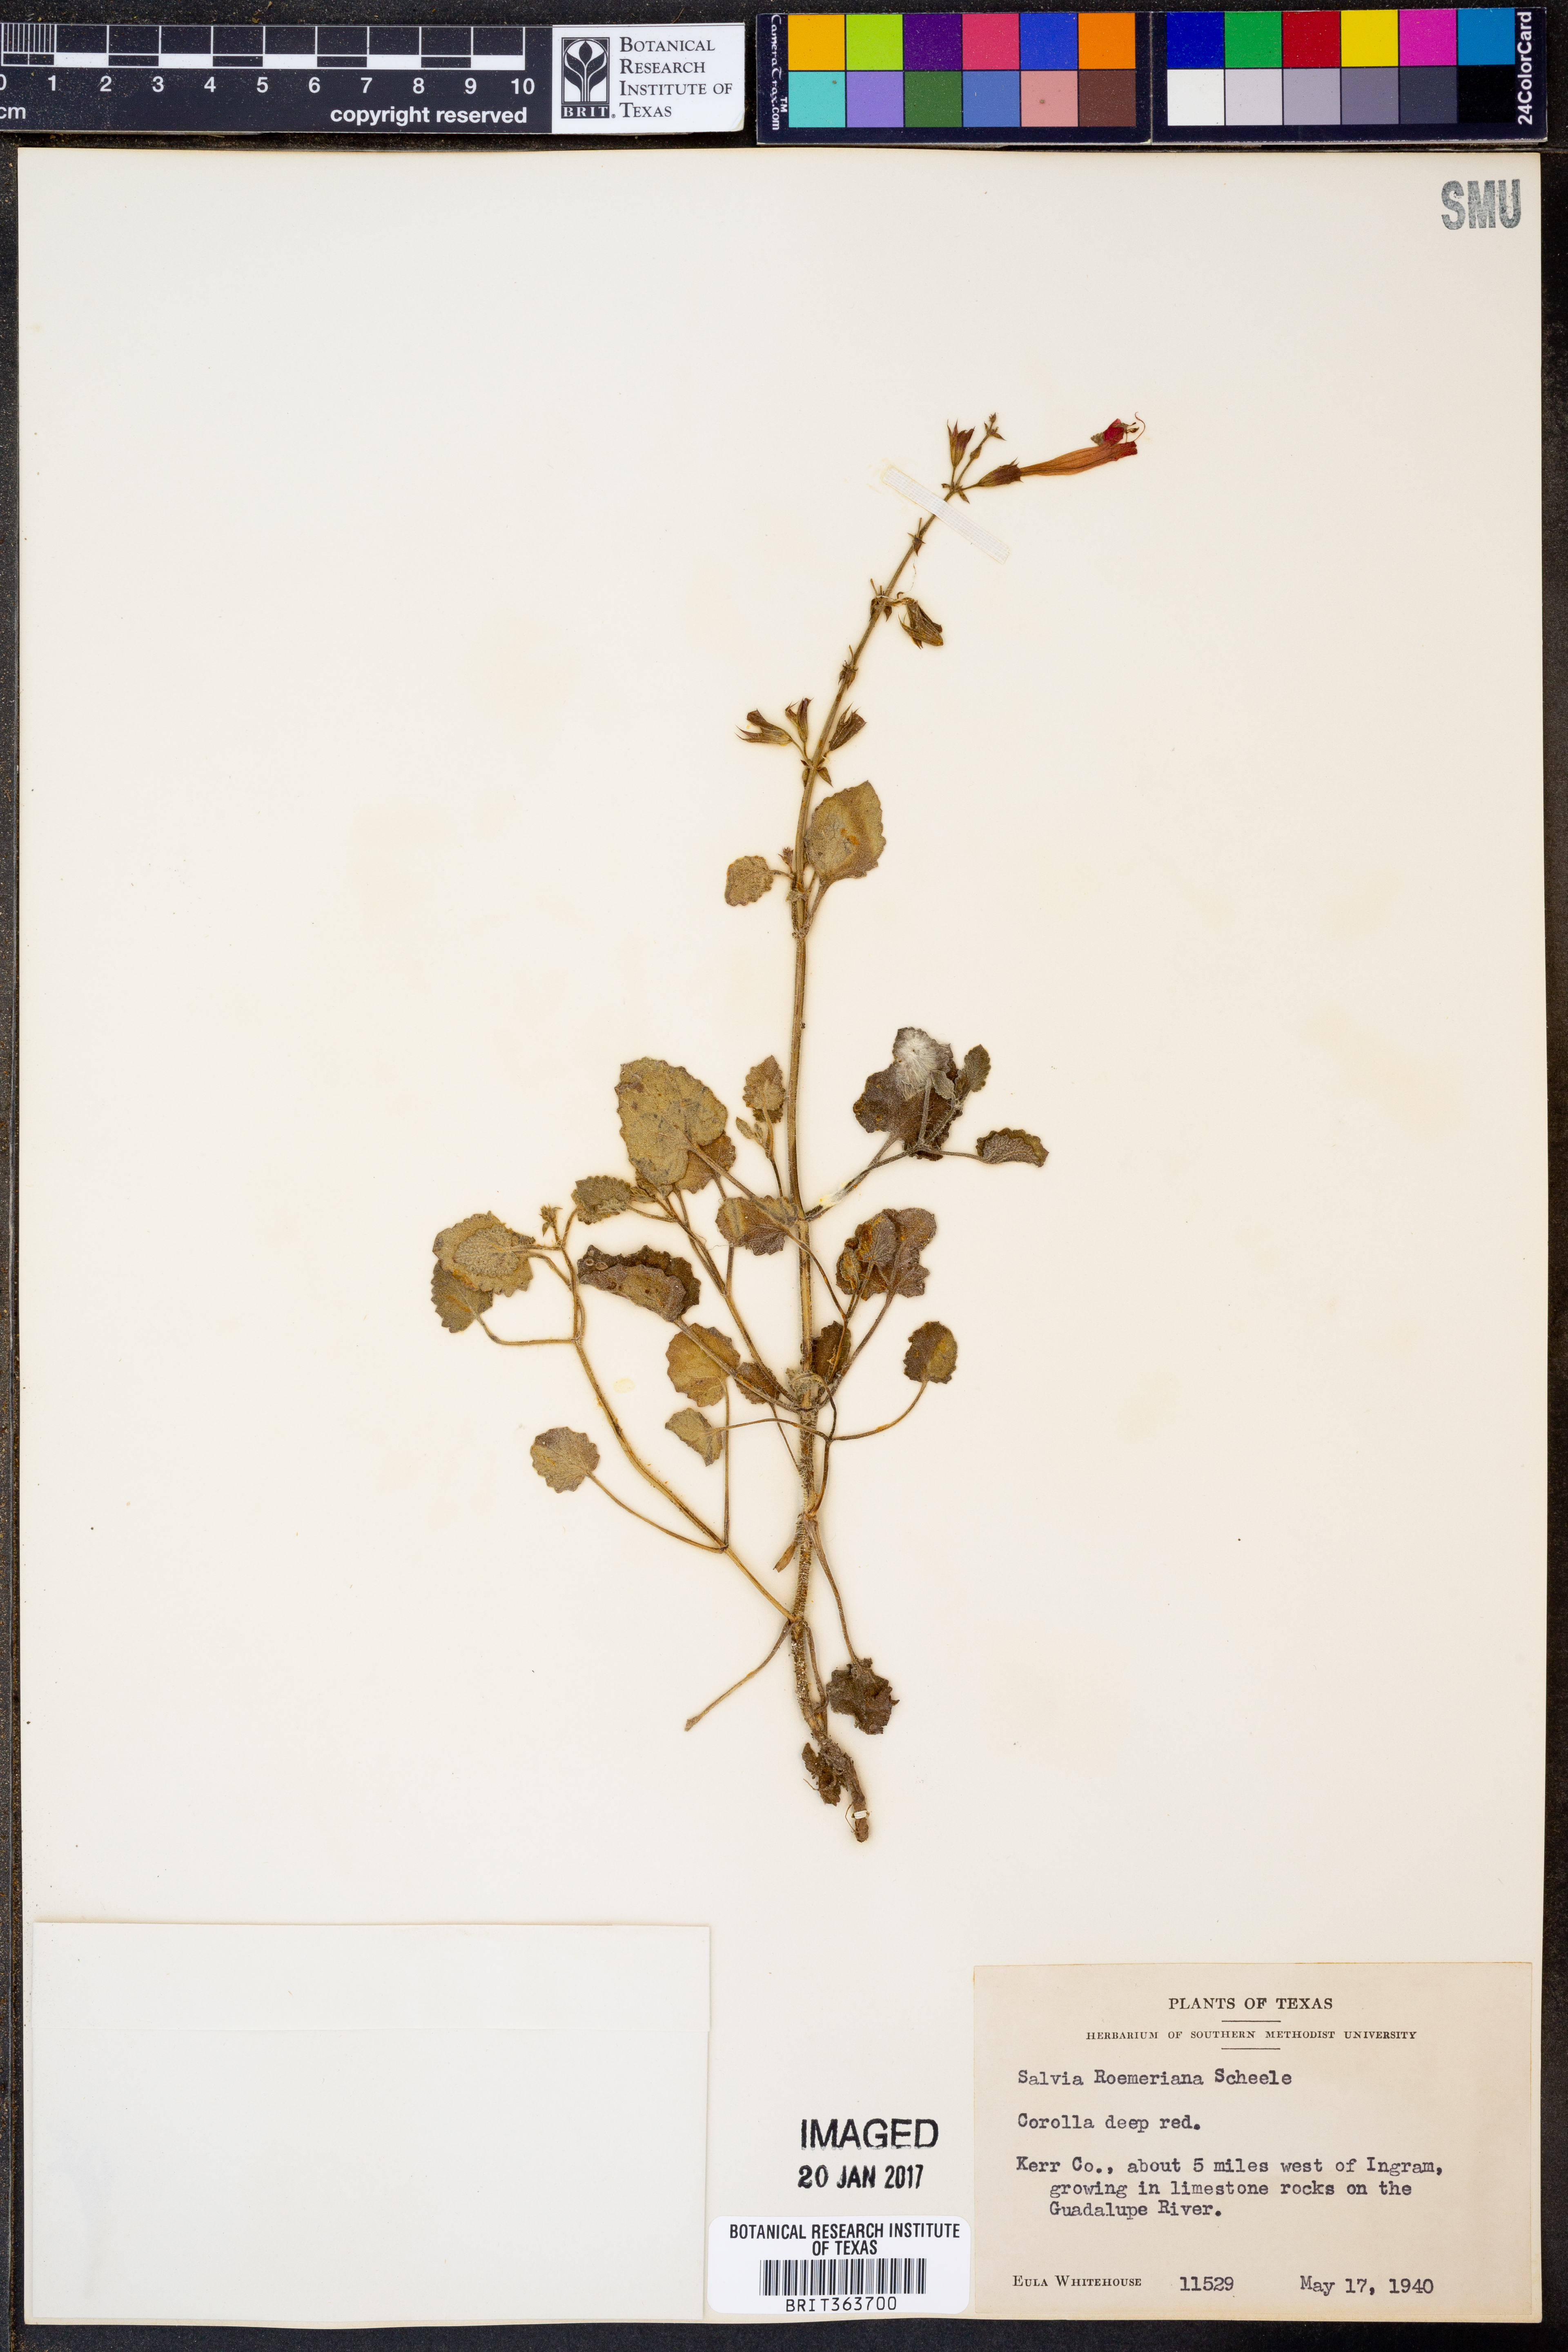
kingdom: Plantae
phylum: Tracheophyta
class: Magnoliopsida
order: Lamiales
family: Lamiaceae
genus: Salvia
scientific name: Salvia roemeriana
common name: Cedar sage
